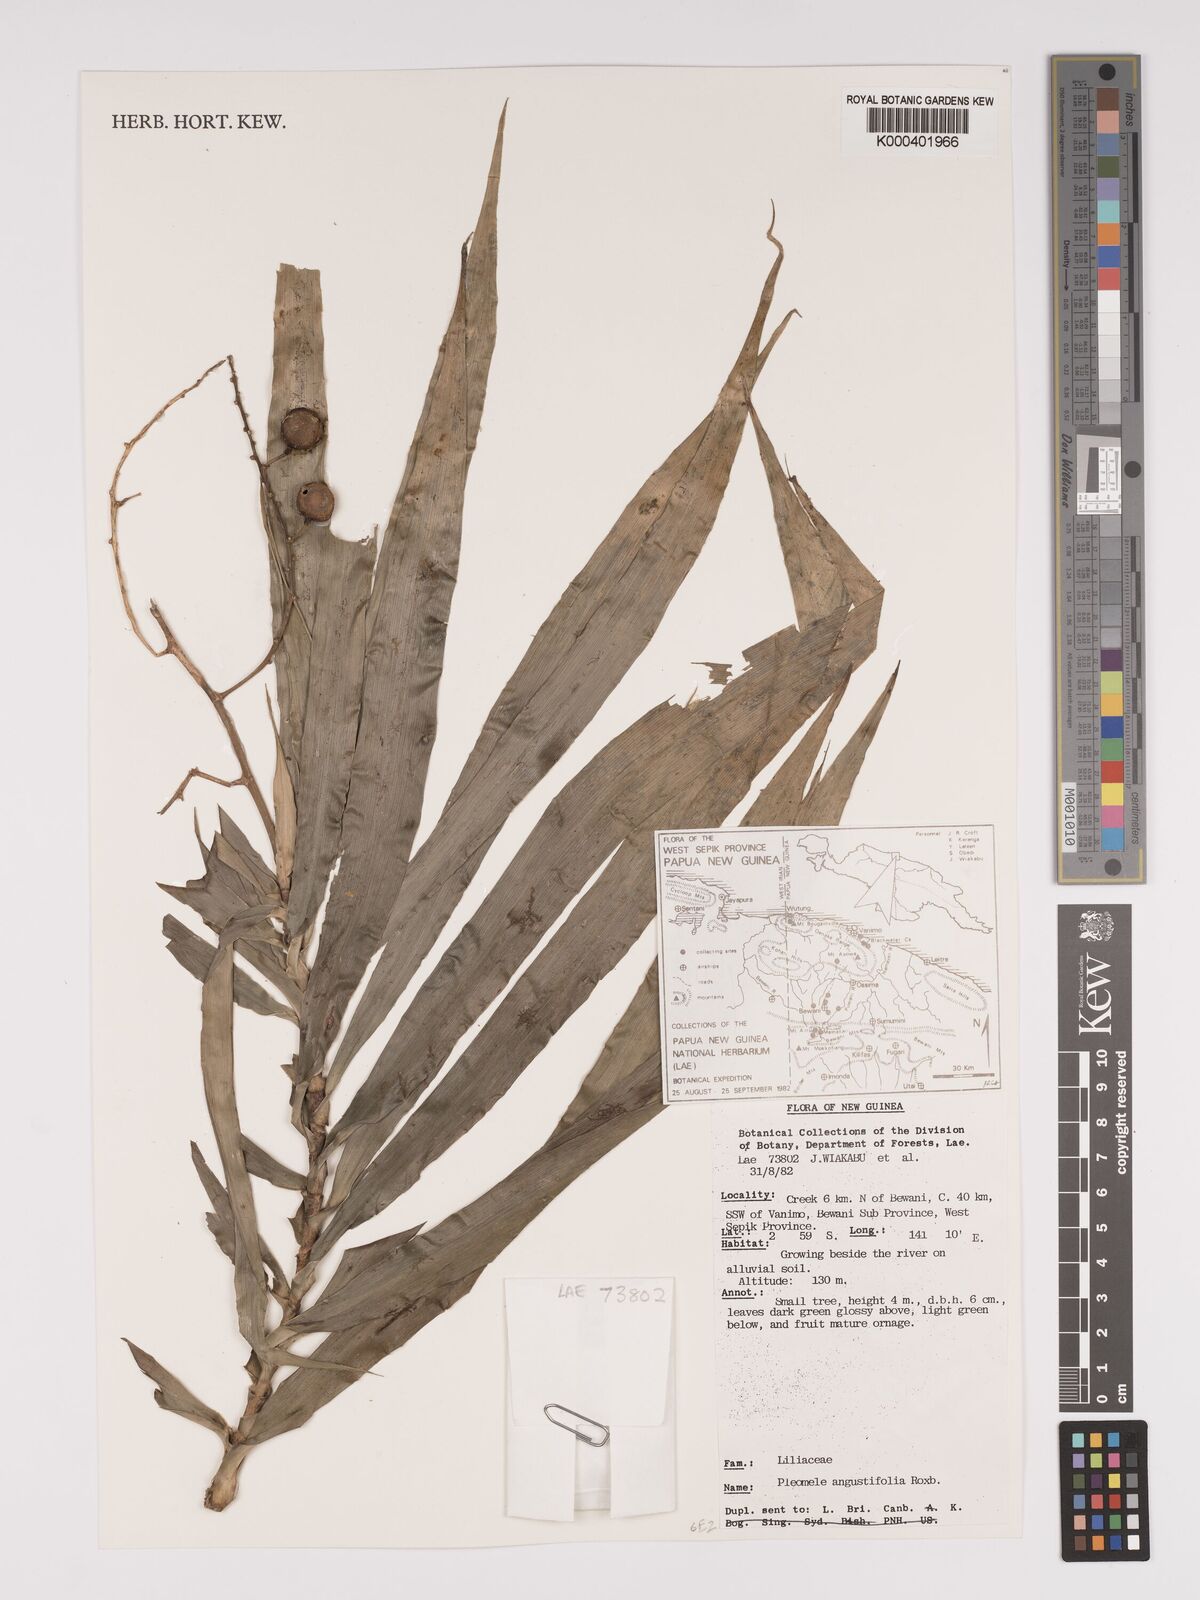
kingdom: Plantae
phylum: Tracheophyta
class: Liliopsida
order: Asparagales
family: Asparagaceae
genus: Dracaena
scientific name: Dracaena angustifolia
